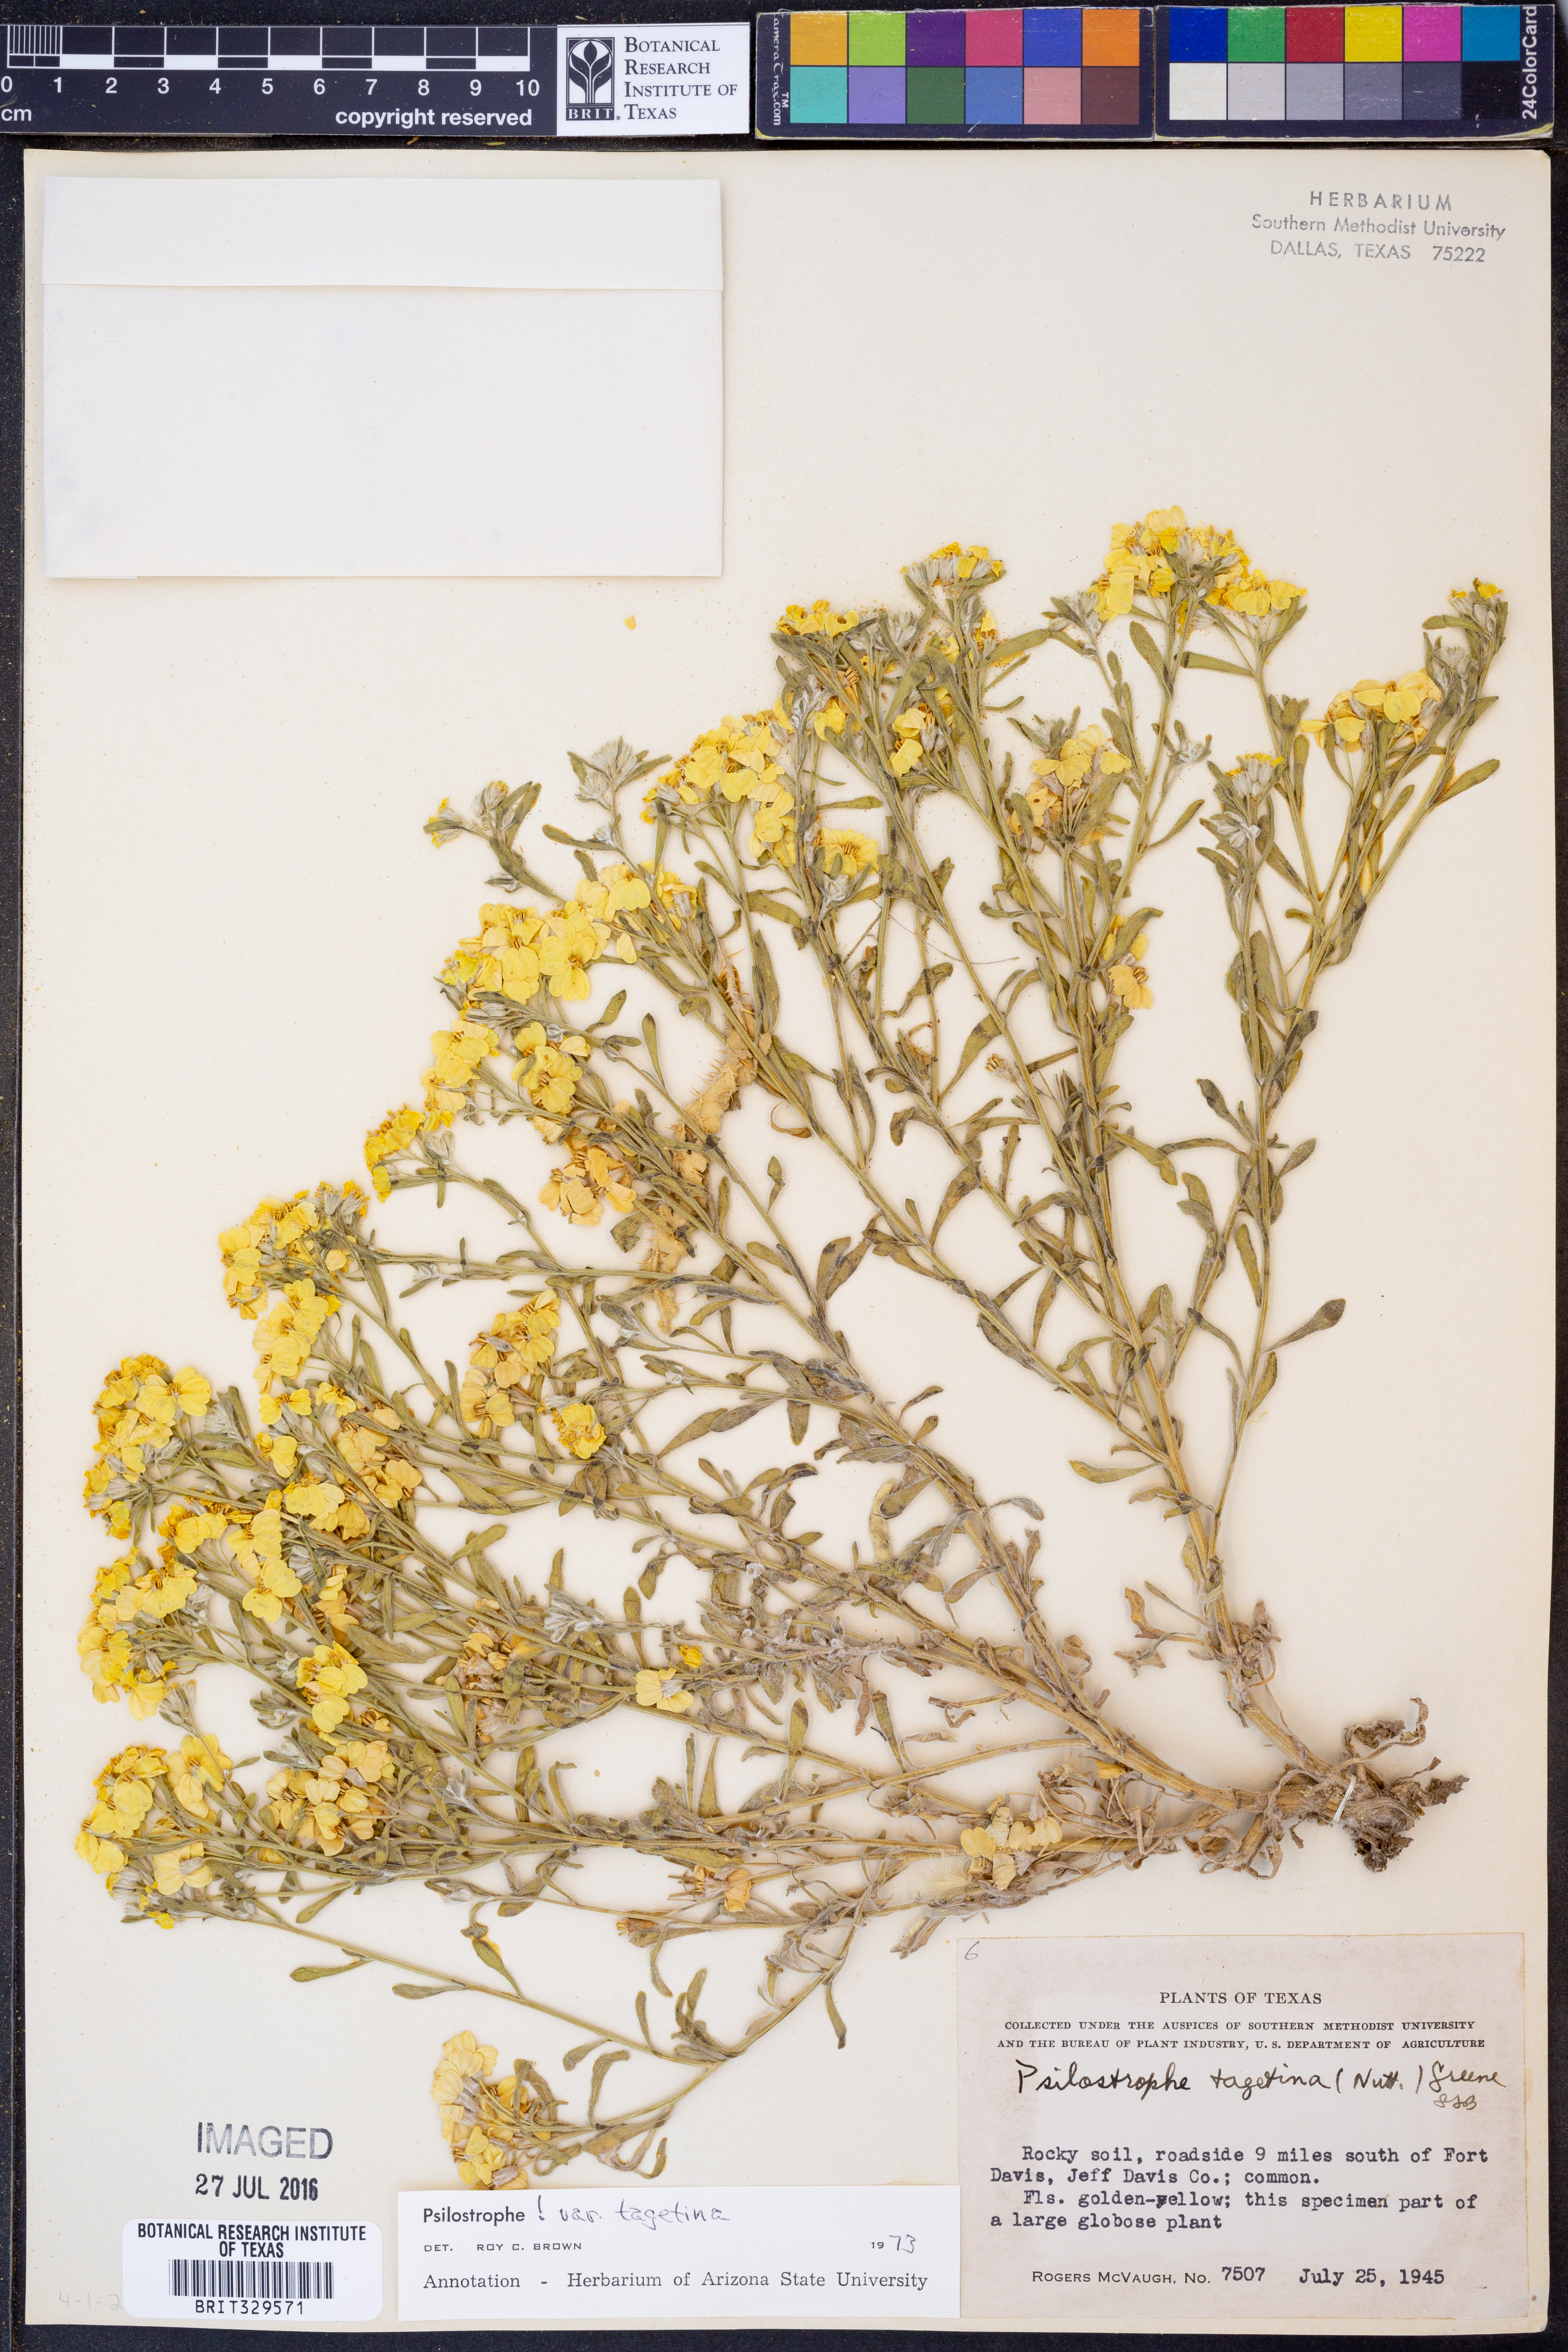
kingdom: Plantae
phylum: Tracheophyta
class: Magnoliopsida
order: Asterales
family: Asteraceae
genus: Psilostrophe
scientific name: Psilostrophe tagetina
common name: Marigold paper-flower
